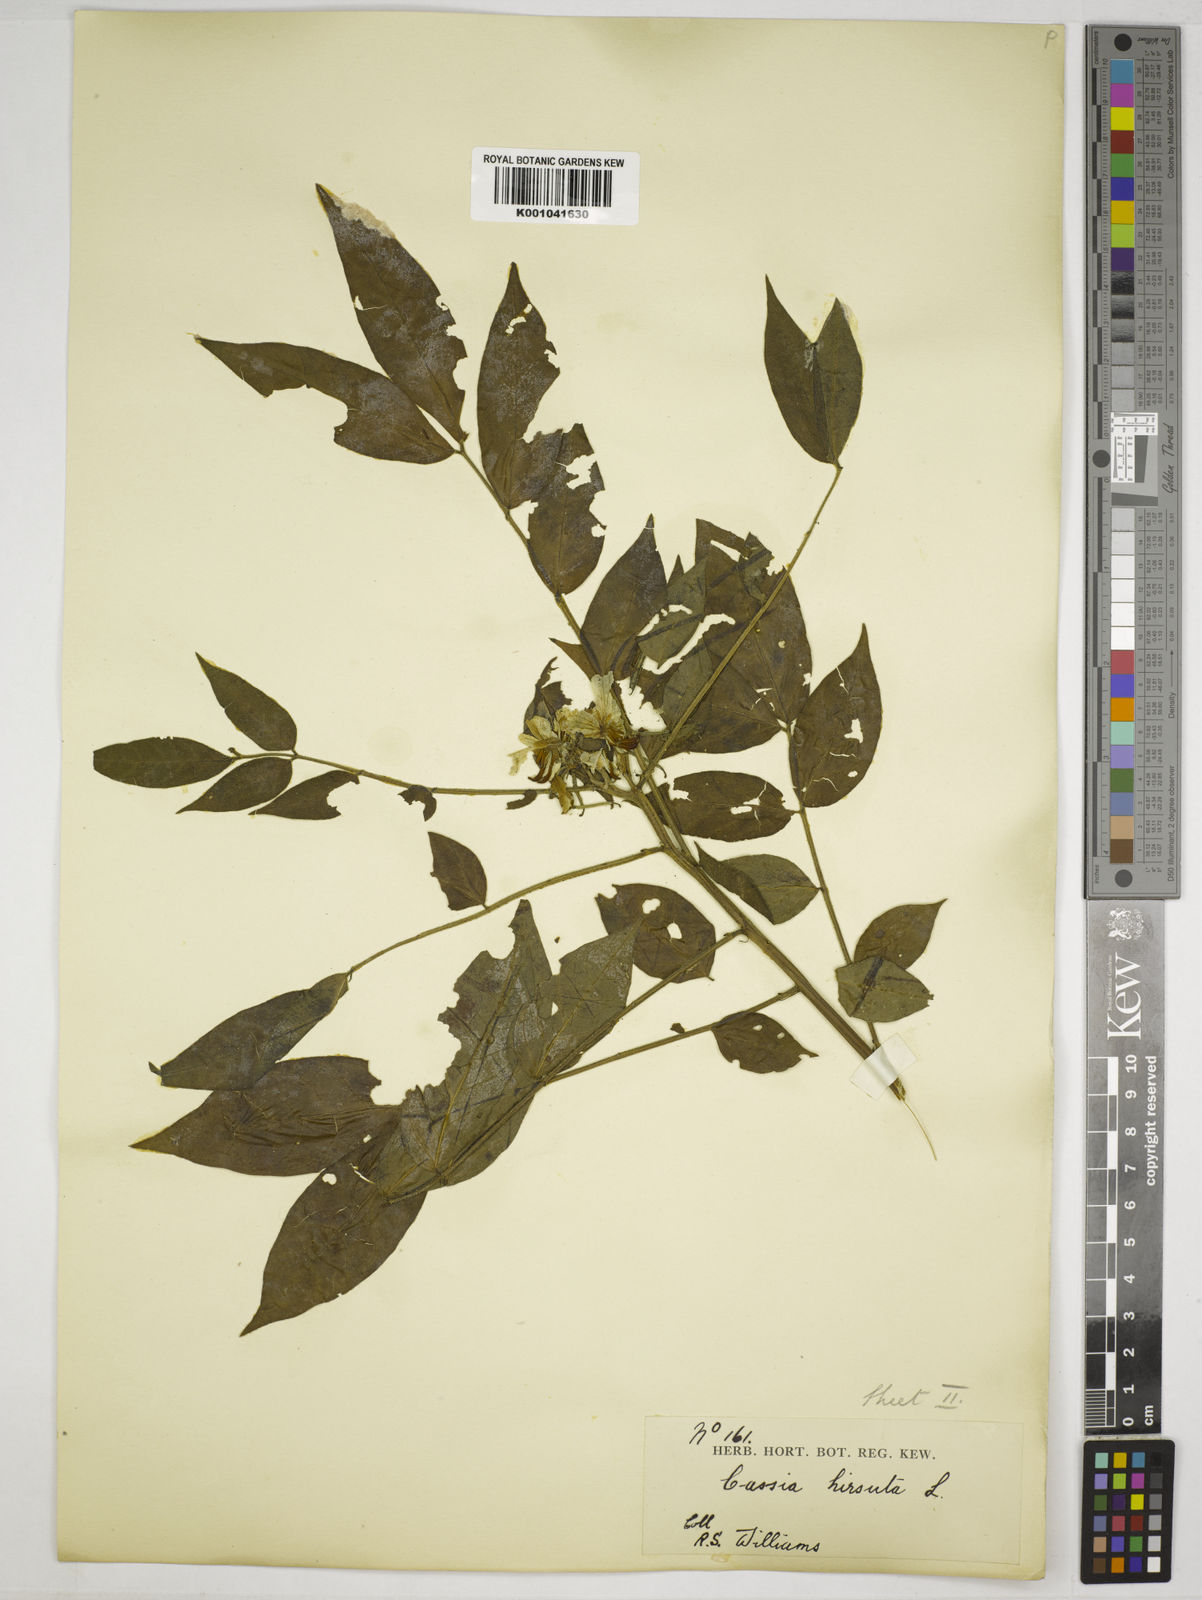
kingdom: Plantae
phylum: Tracheophyta
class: Magnoliopsida
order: Fabales
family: Fabaceae
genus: Senna
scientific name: Senna hirsuta
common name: Woolly senna
